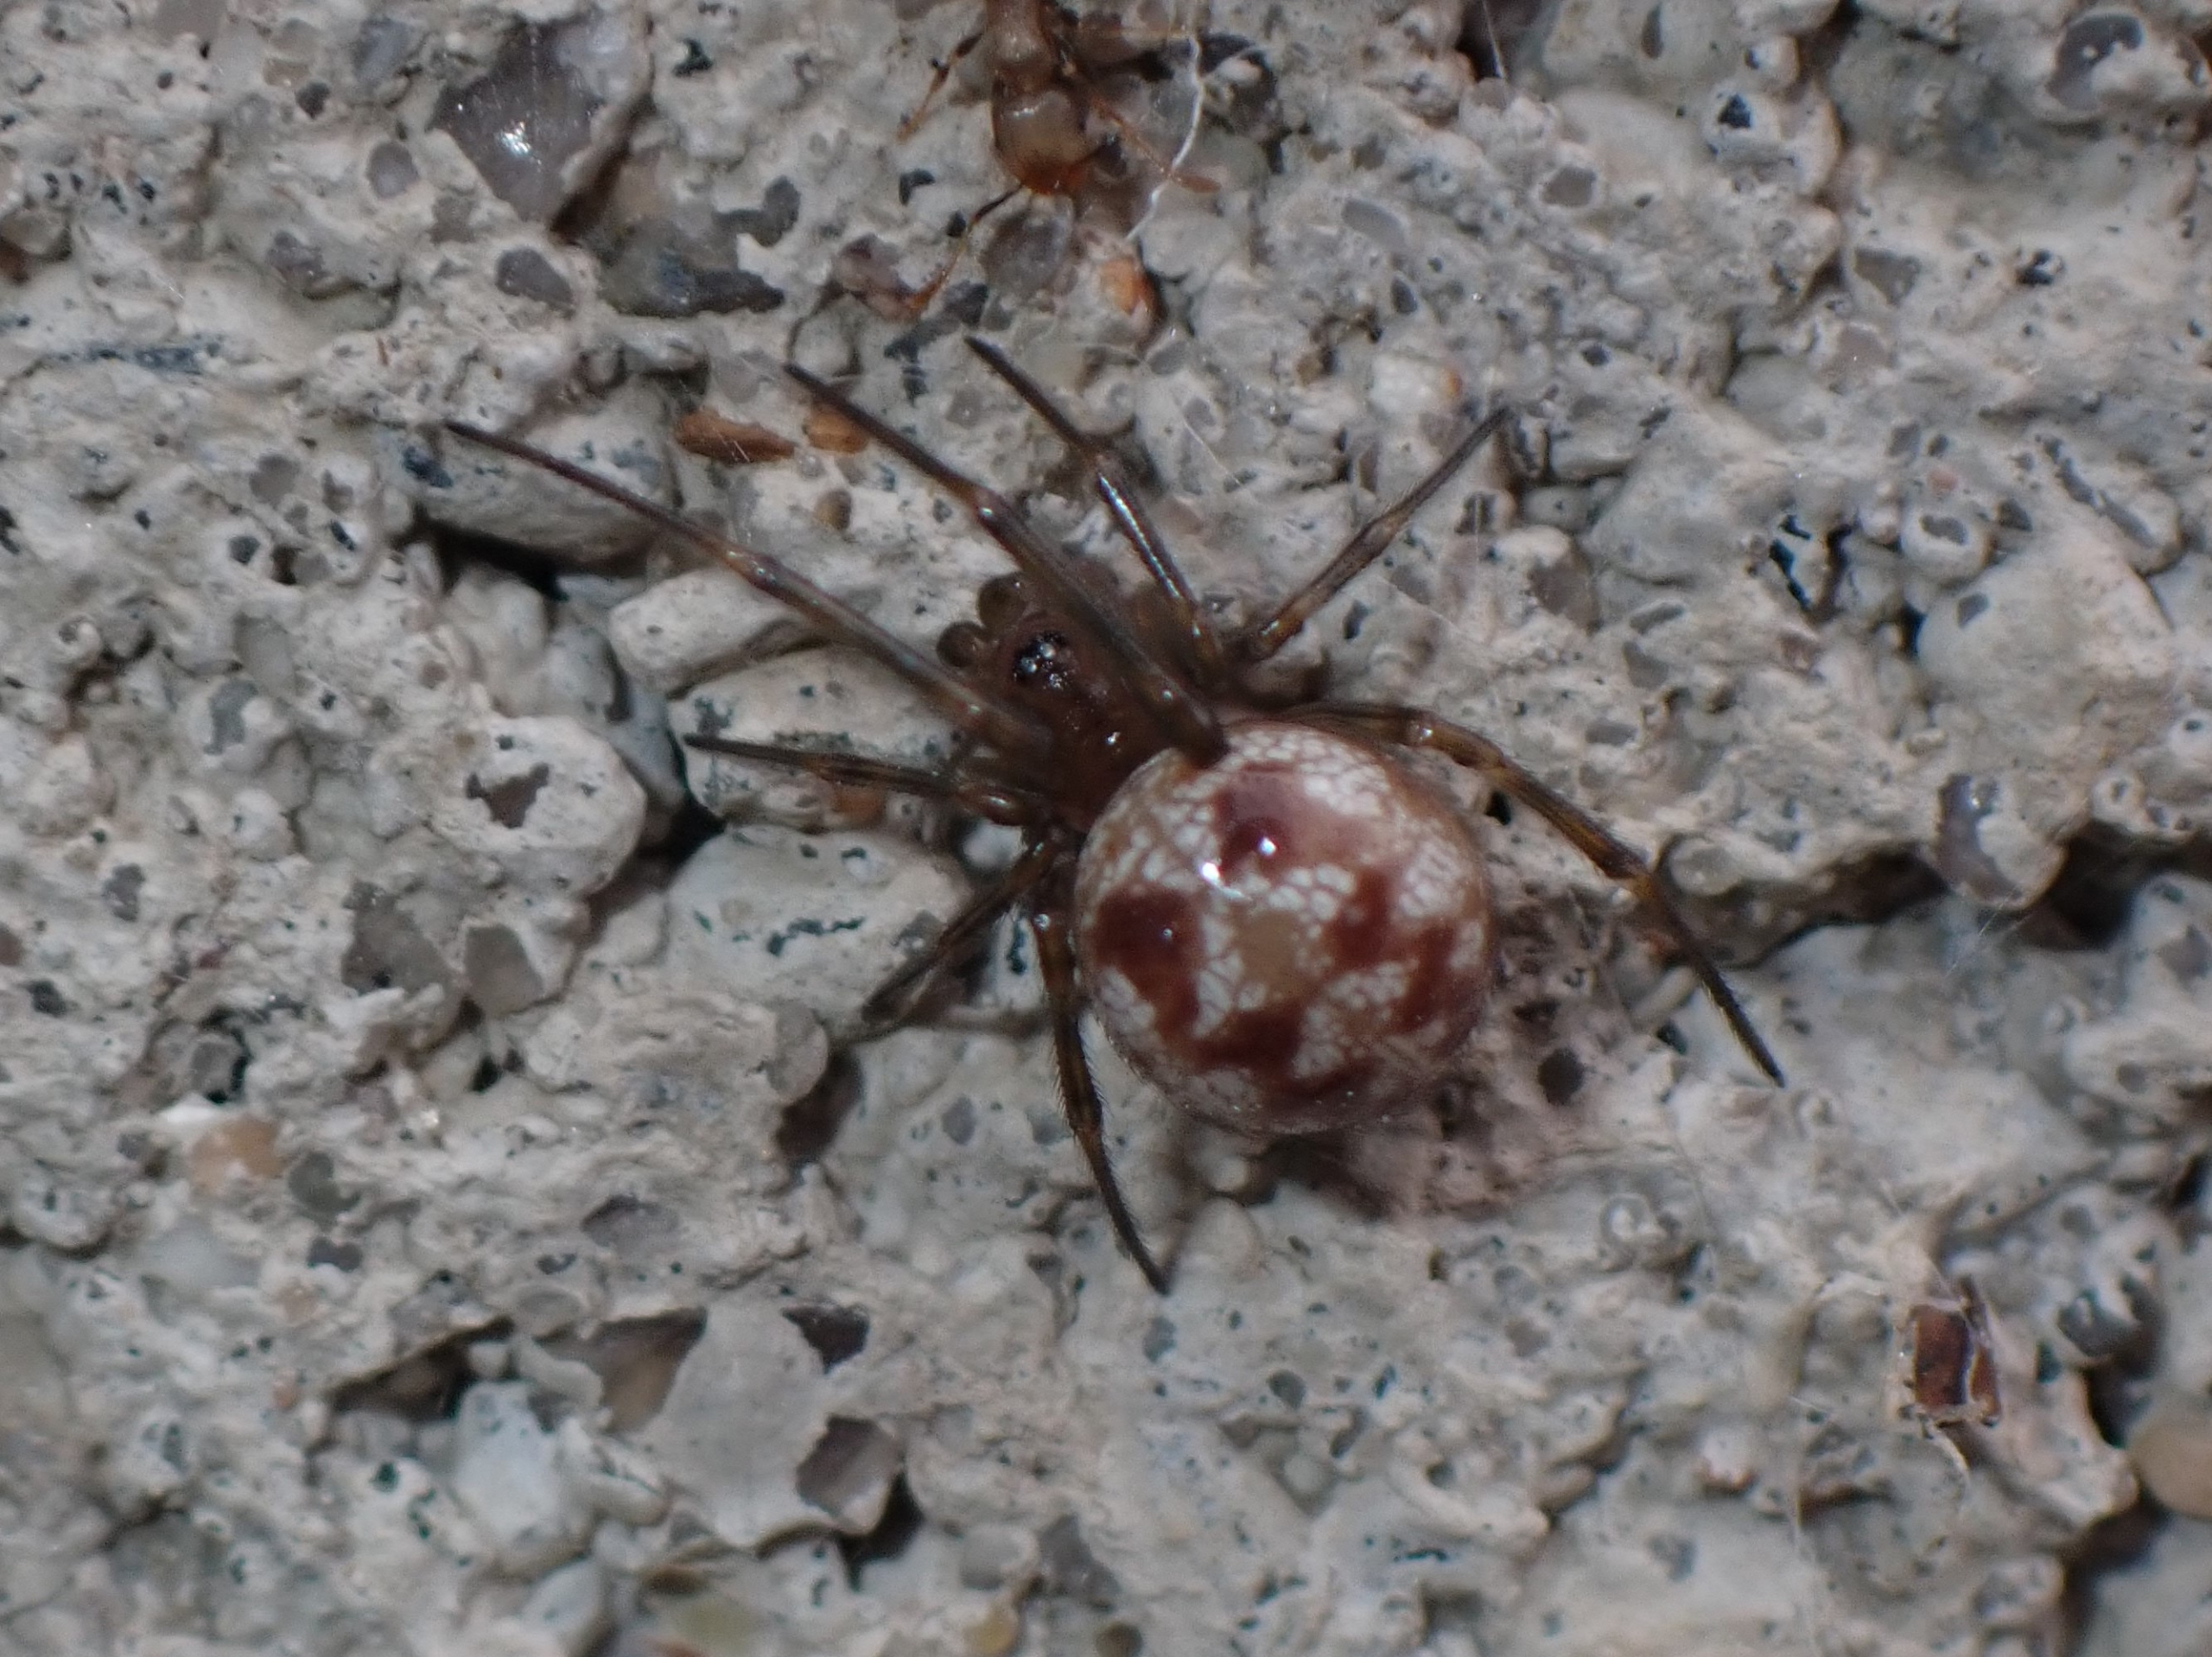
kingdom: Animalia
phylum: Arthropoda
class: Arachnida
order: Araneae
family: Theridiidae
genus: Steatoda
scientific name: Steatoda triangulosa
